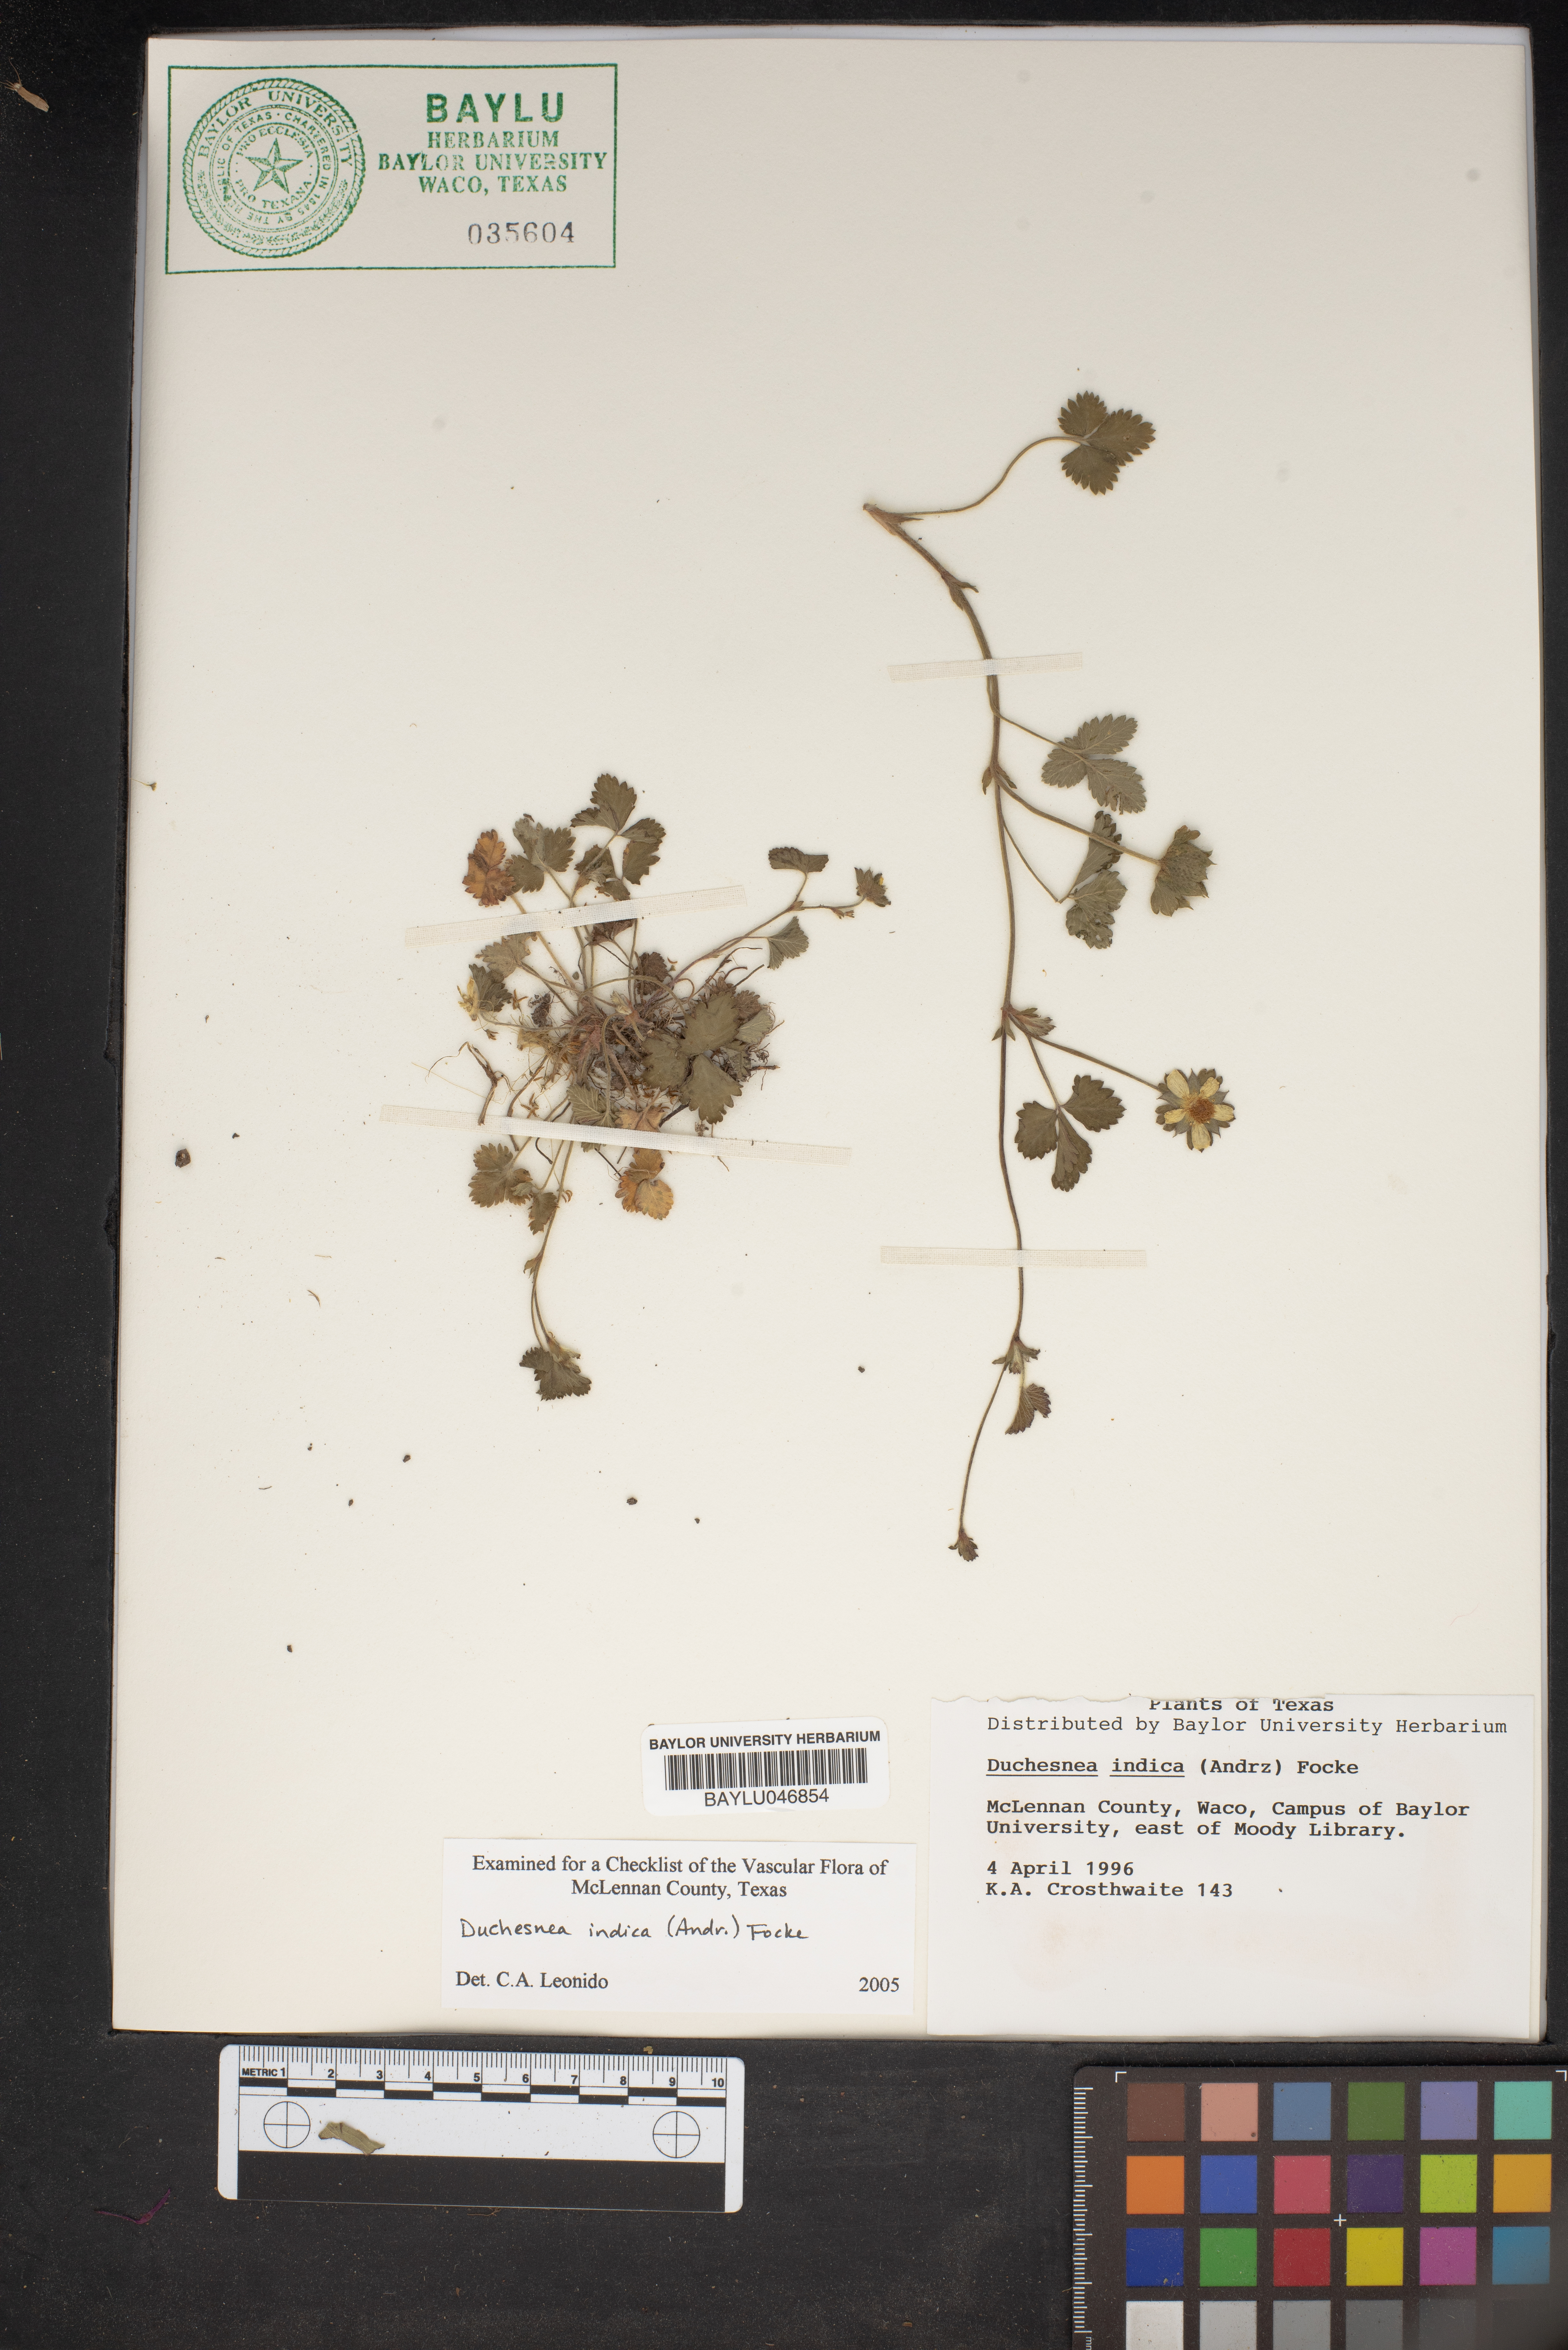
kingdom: Plantae
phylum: Tracheophyta
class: Magnoliopsida
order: Rosales
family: Rosaceae
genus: Potentilla
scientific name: Potentilla indica
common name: Yellow-flowered strawberry
